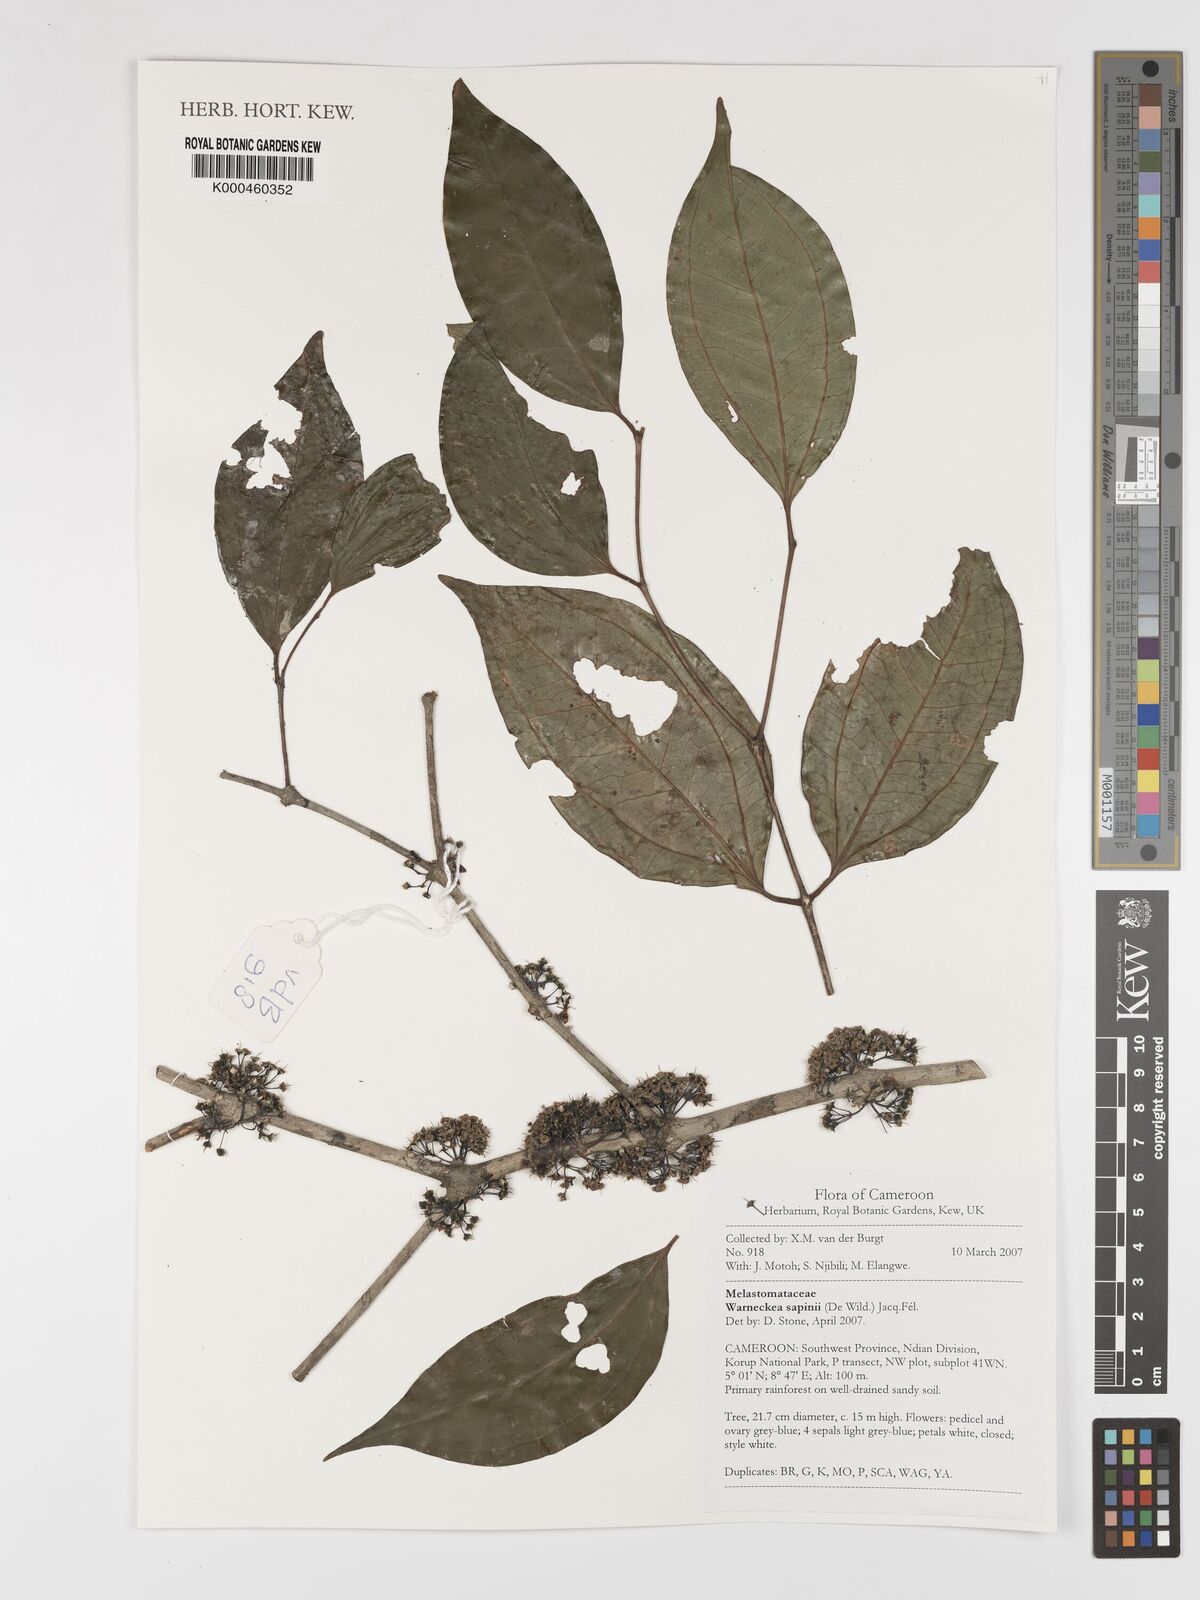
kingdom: Plantae
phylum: Tracheophyta
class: Magnoliopsida
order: Myrtales
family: Melastomataceae
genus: Warneckea
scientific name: Warneckea
